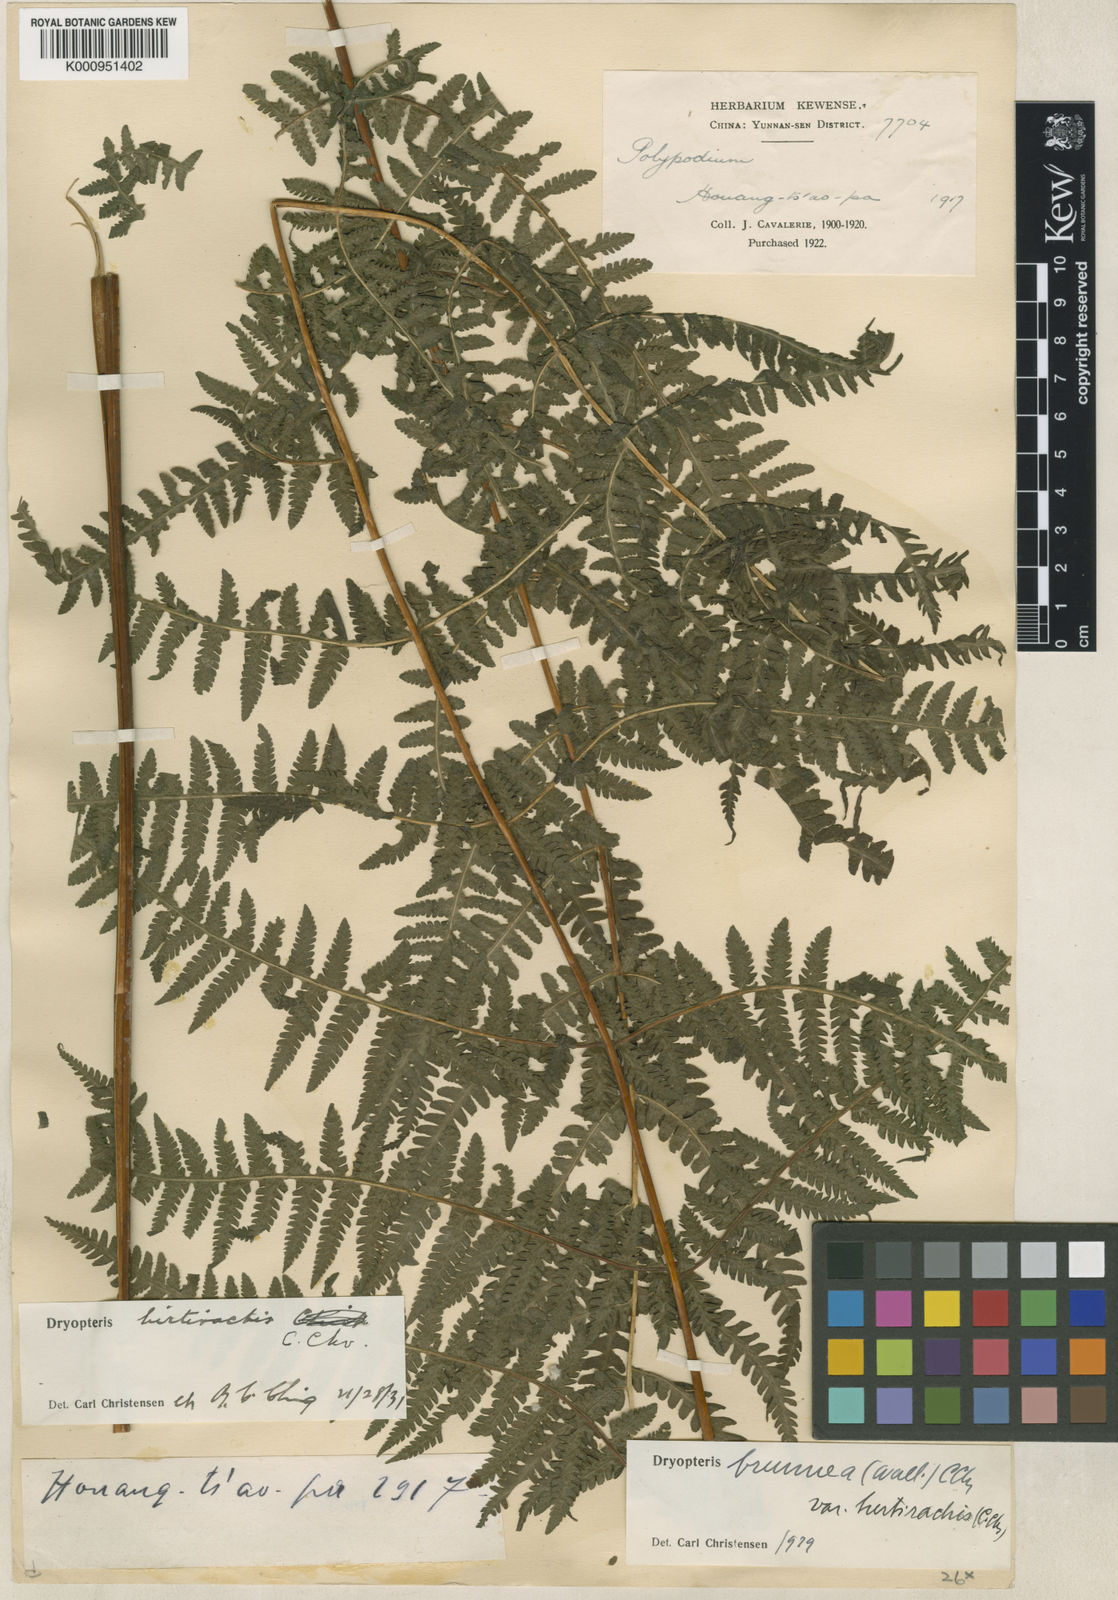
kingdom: Plantae
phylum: Tracheophyta
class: Polypodiopsida
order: Polypodiales
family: Thelypteridaceae
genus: Pseudophegopteris
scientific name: Pseudophegopteris hirtirachis
